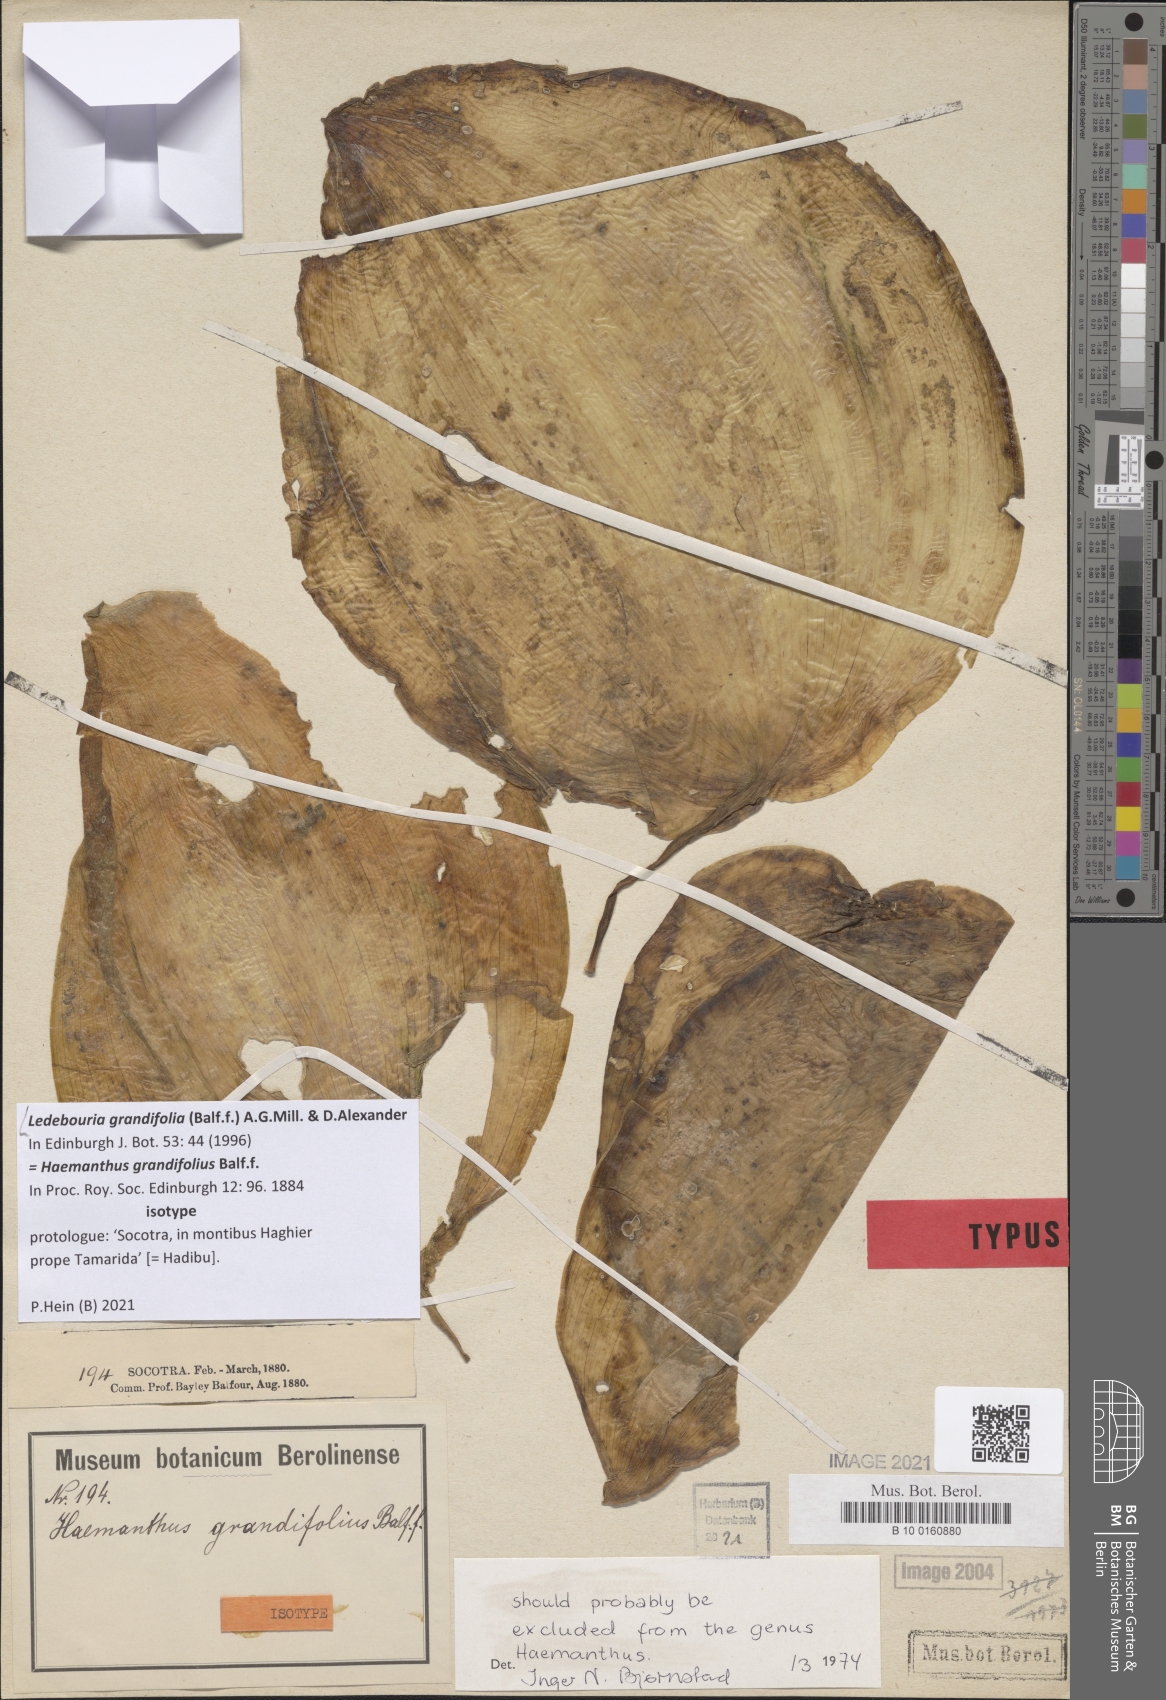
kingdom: Plantae
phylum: Tracheophyta
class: Liliopsida
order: Asparagales
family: Asparagaceae
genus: Ledebouria
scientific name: Ledebouria grandifolia
